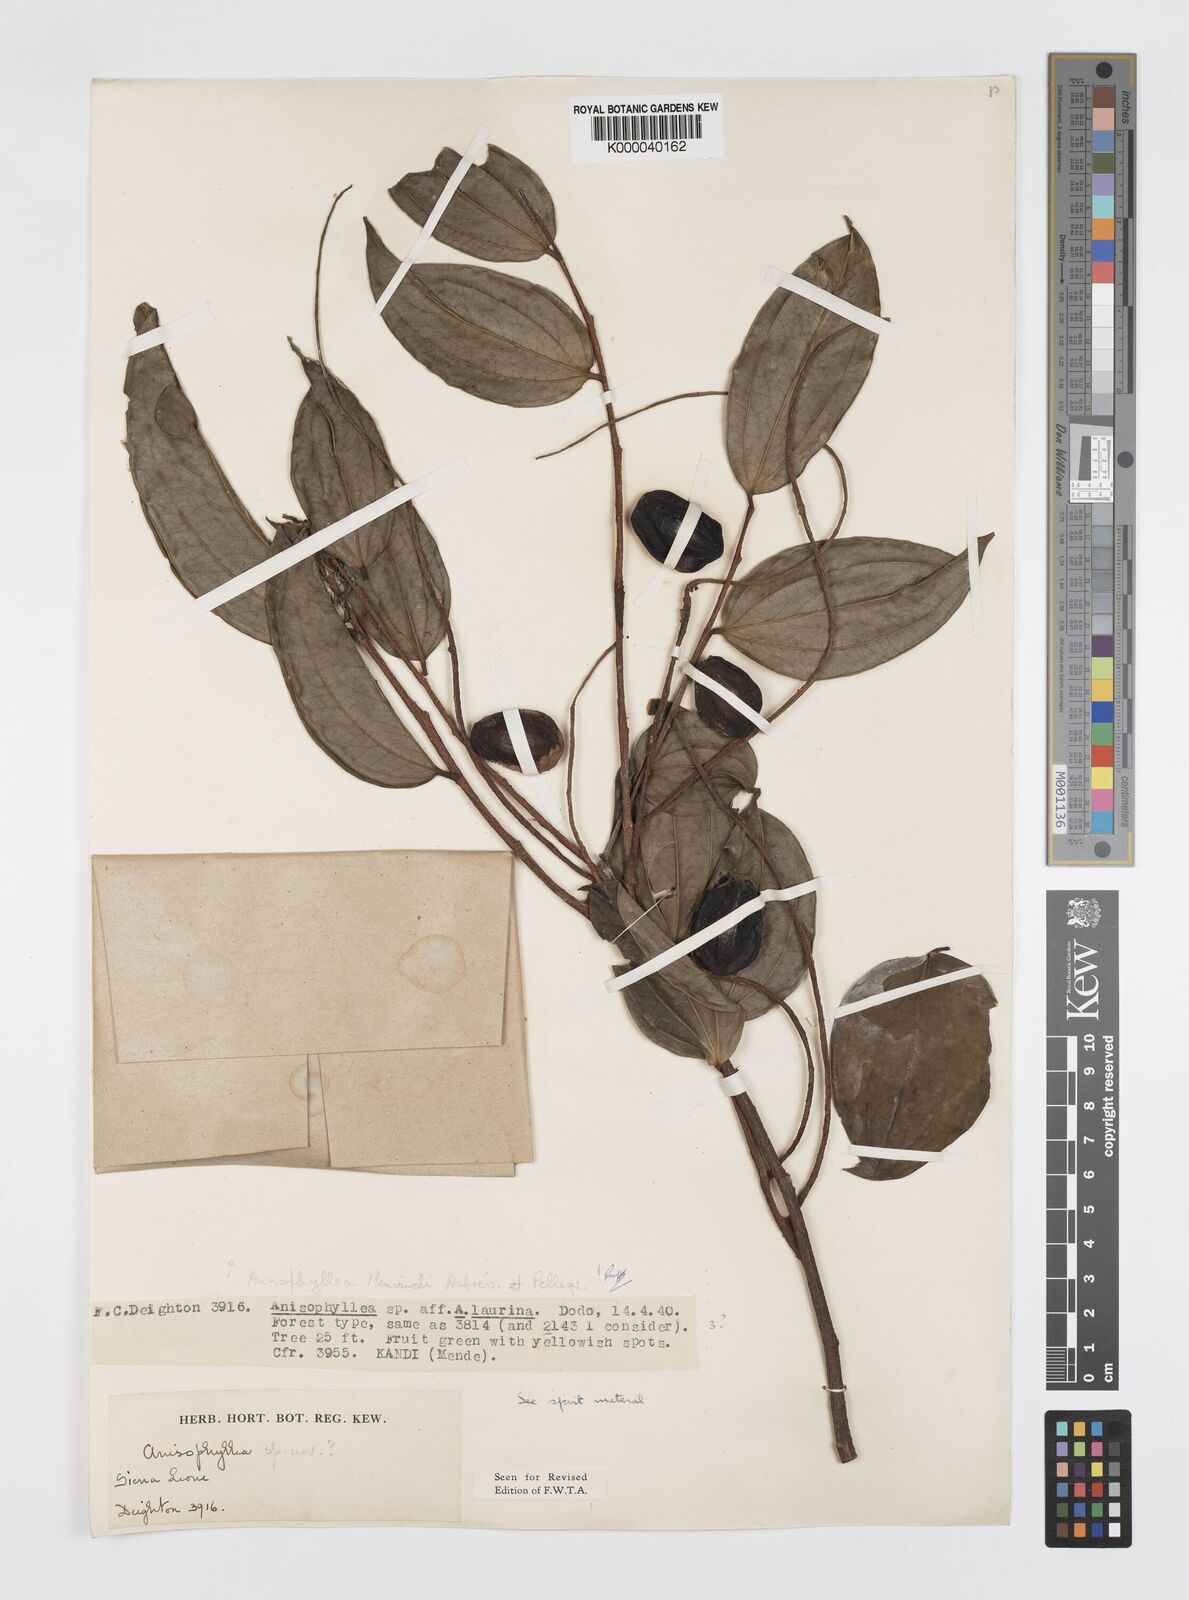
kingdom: Plantae
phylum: Tracheophyta
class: Magnoliopsida
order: Cucurbitales
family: Anisophylleaceae
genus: Anisophyllea
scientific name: Anisophyllea
